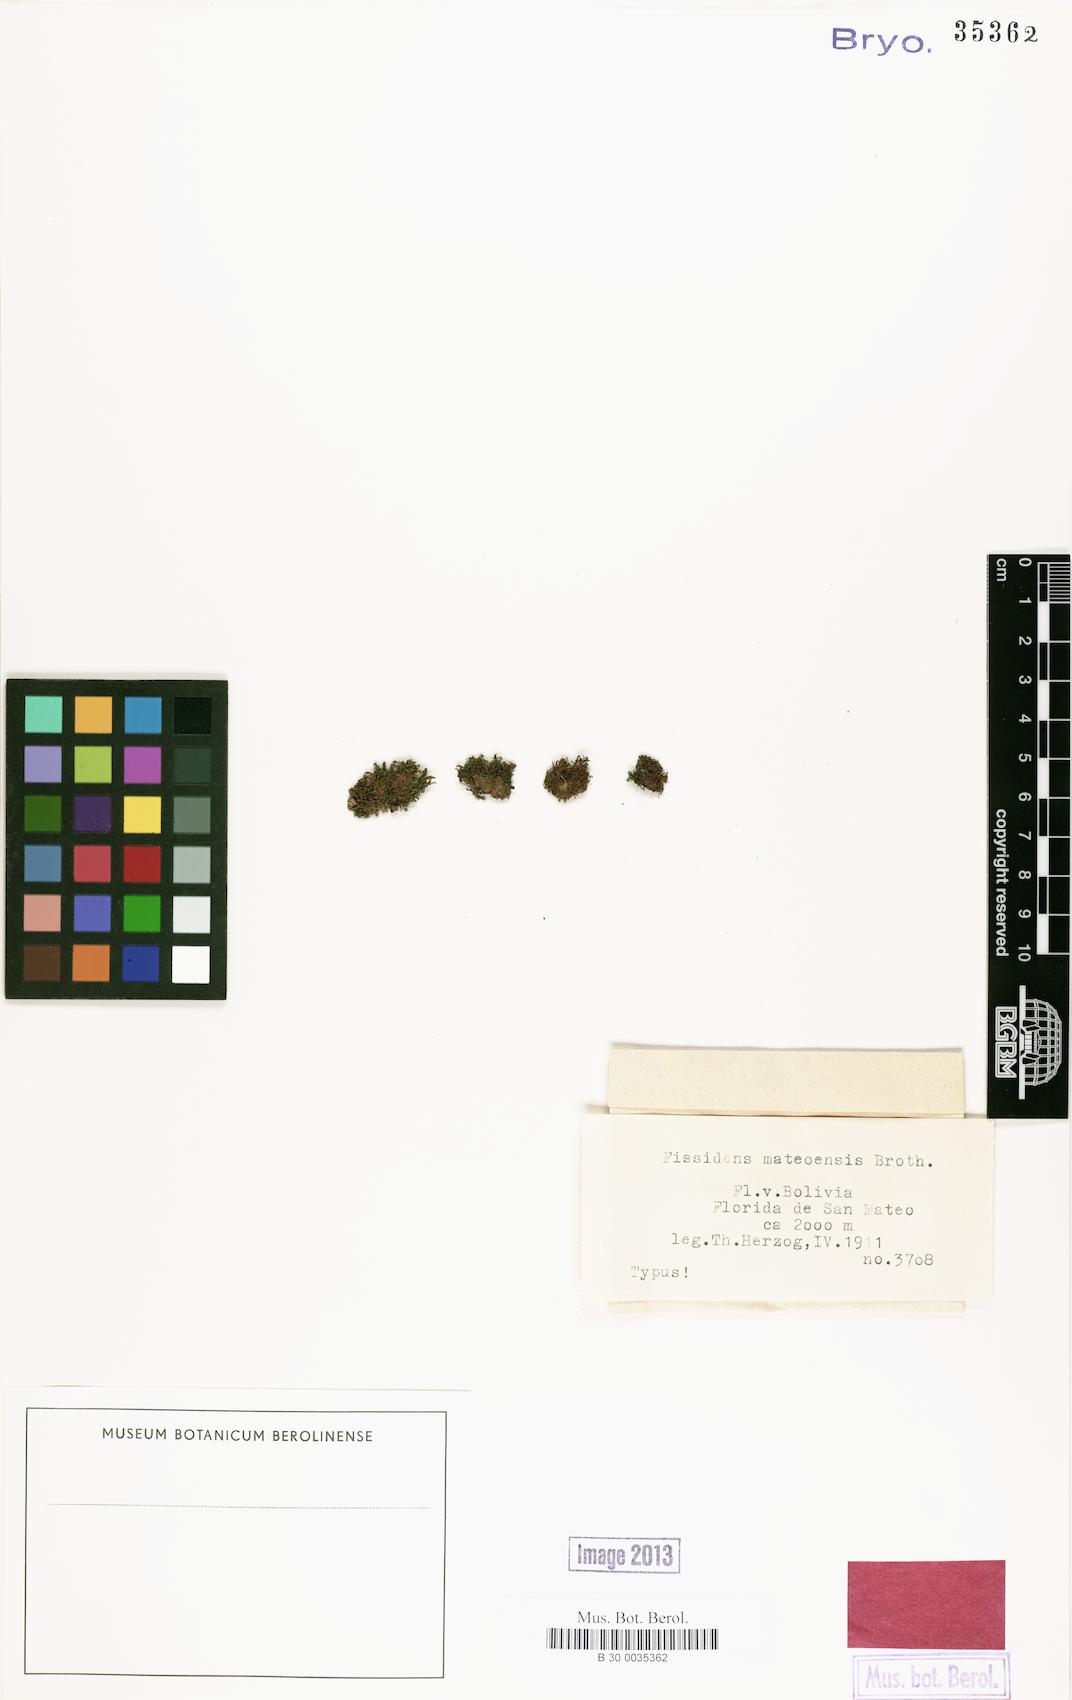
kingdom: Plantae
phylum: Bryophyta
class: Bryopsida
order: Dicranales
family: Fissidentaceae
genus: Fissidens
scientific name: Fissidens pallidinervis
